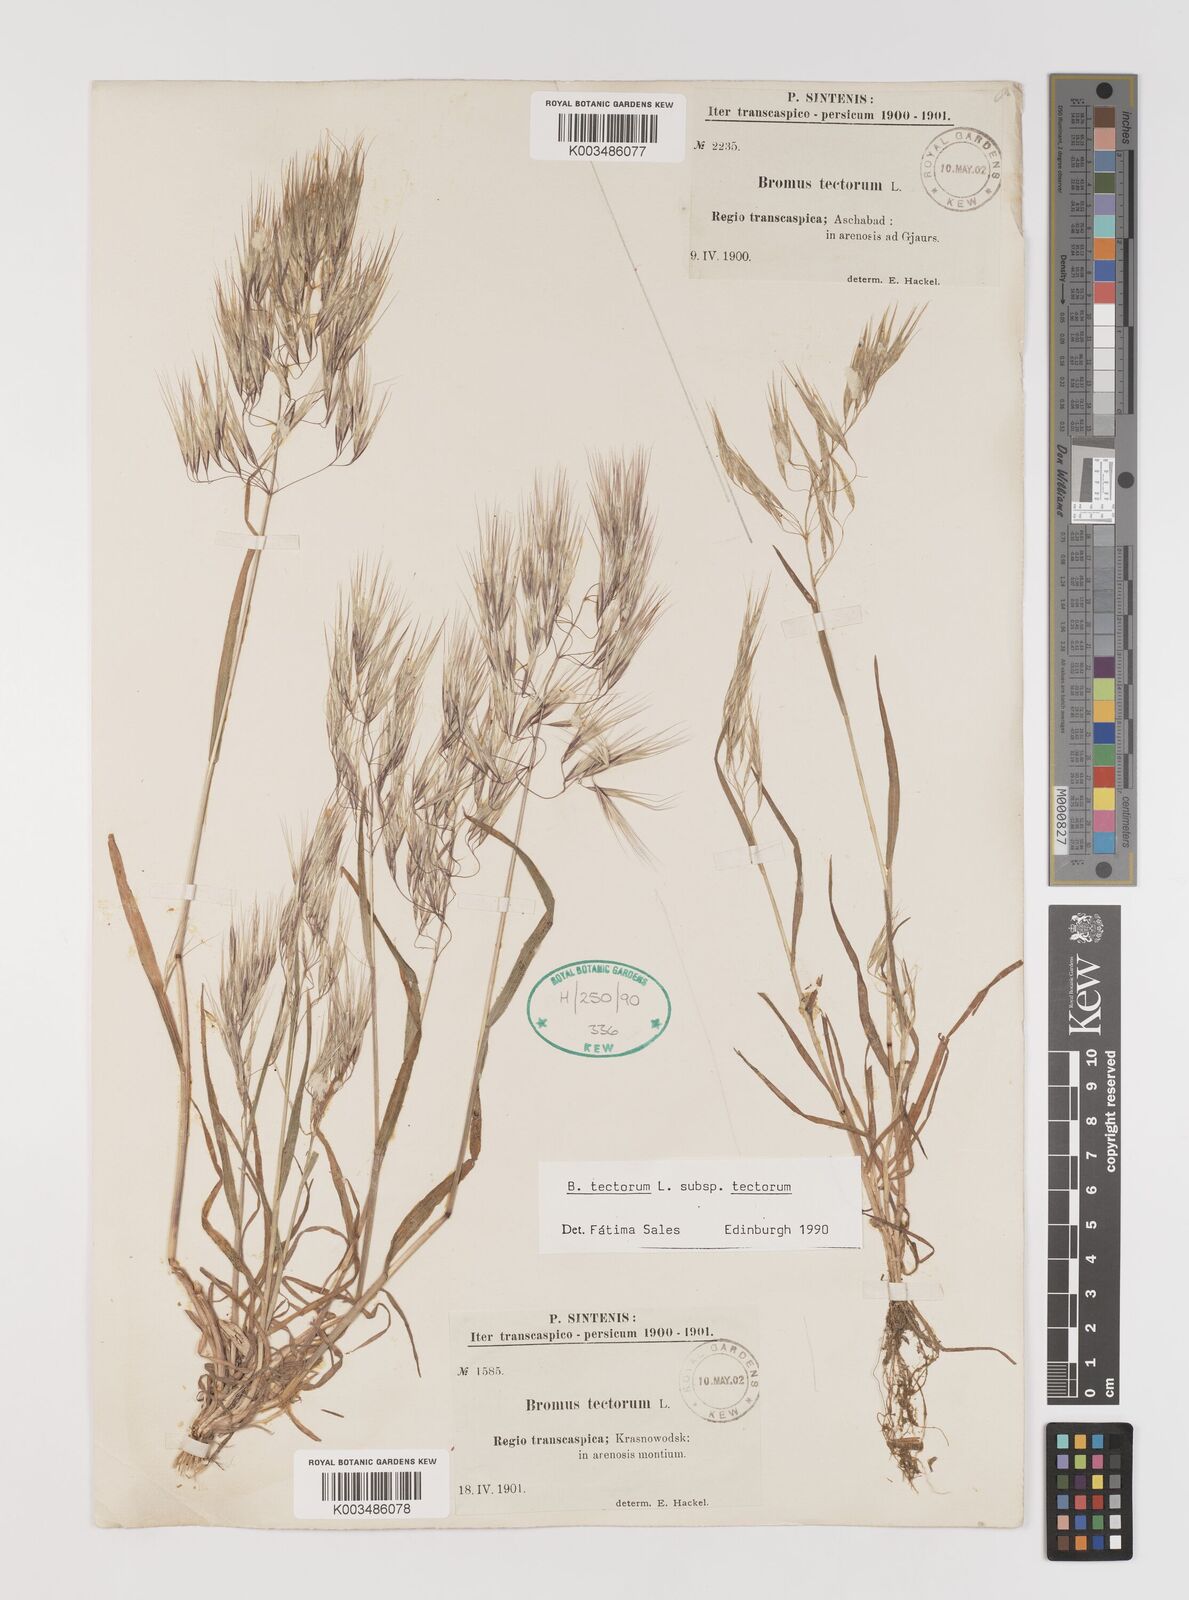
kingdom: Plantae
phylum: Tracheophyta
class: Liliopsida
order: Poales
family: Poaceae
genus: Bromus
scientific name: Bromus tectorum
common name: Cheatgrass
